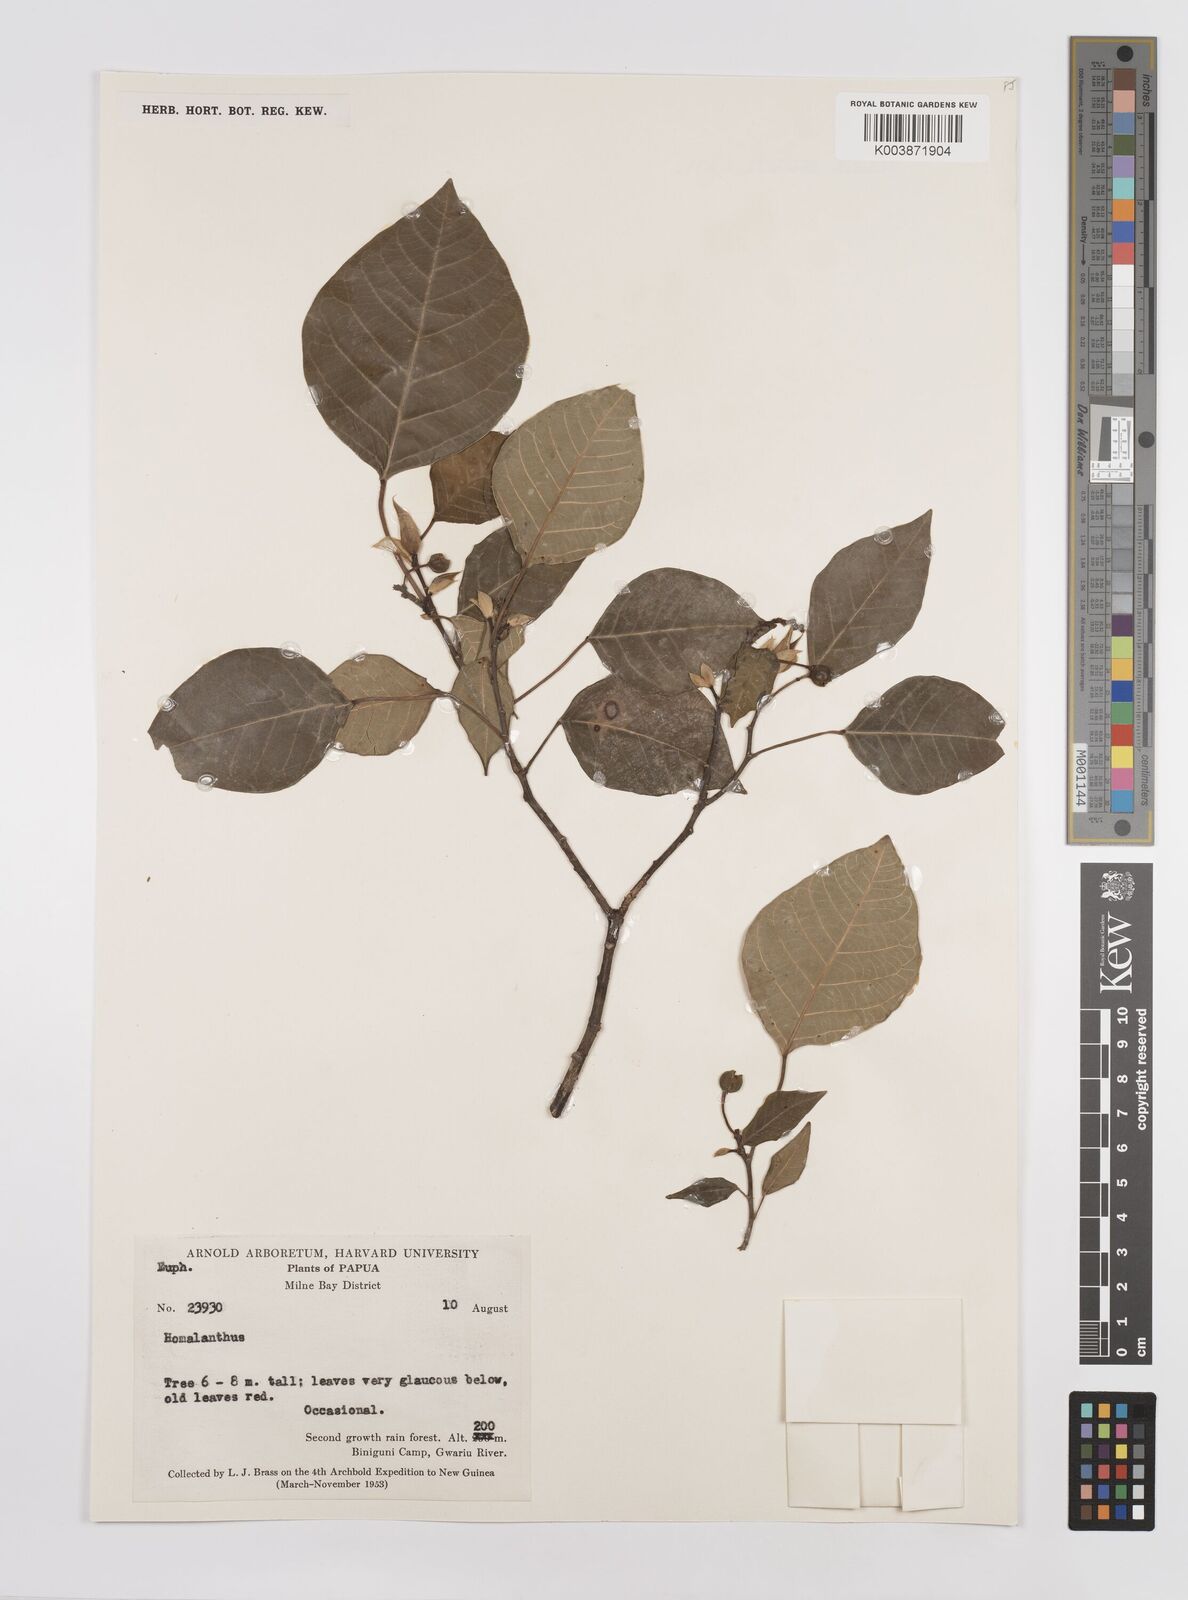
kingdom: Plantae
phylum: Tracheophyta
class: Magnoliopsida
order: Malpighiales
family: Euphorbiaceae
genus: Homalanthus
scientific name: Homalanthus novoguineensis
